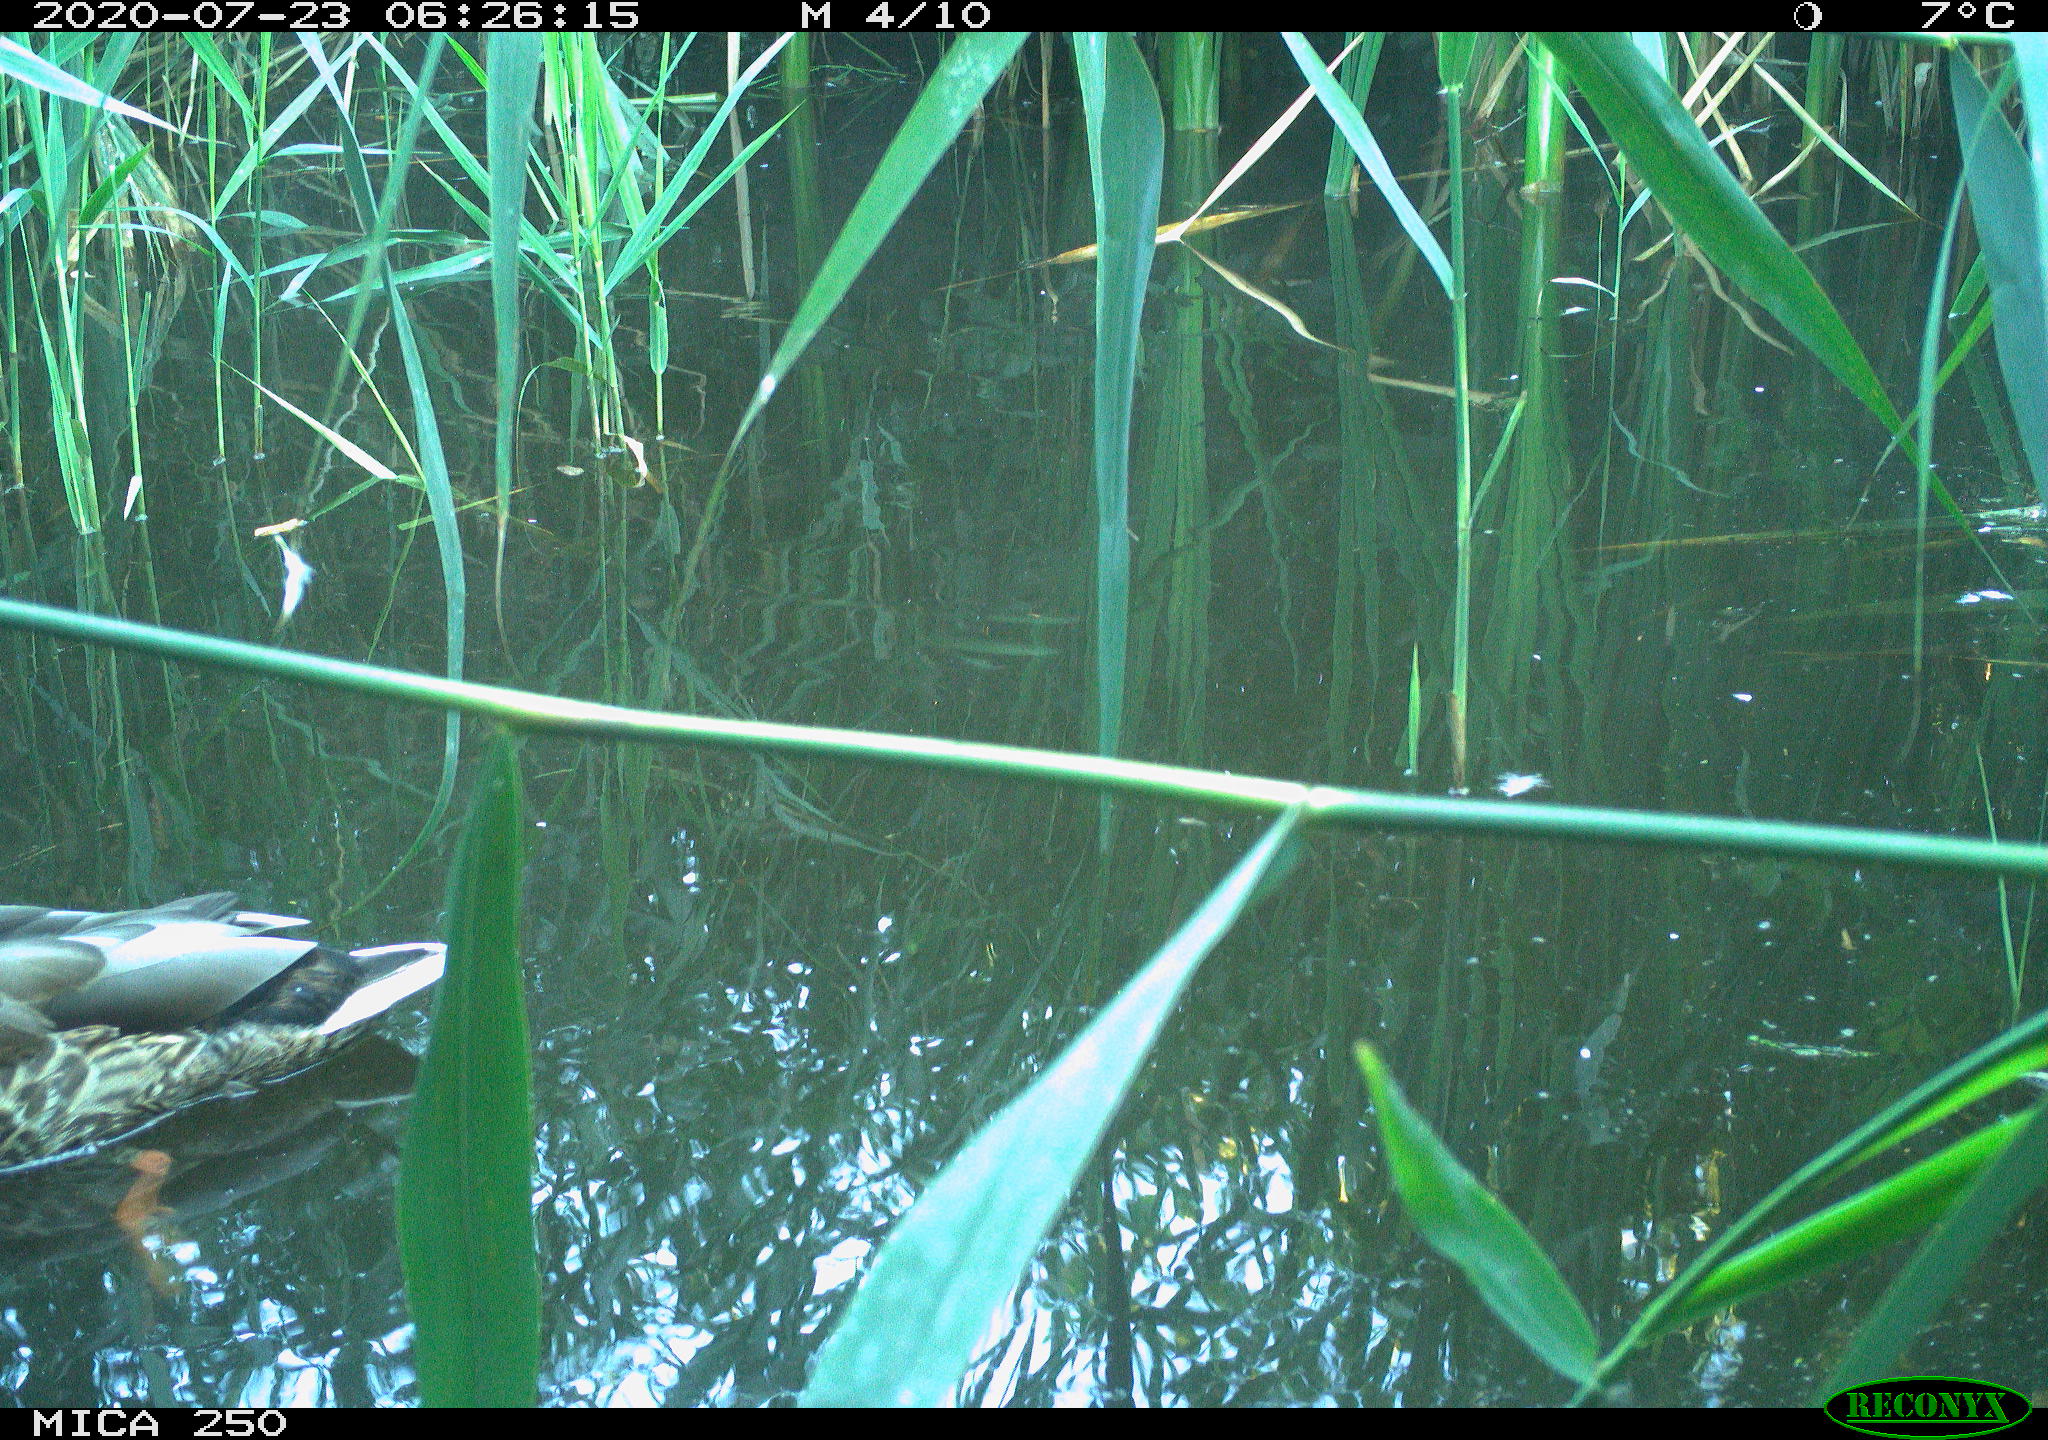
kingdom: Animalia
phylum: Chordata
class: Aves
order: Anseriformes
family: Anatidae
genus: Anas
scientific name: Anas platyrhynchos
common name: Mallard
